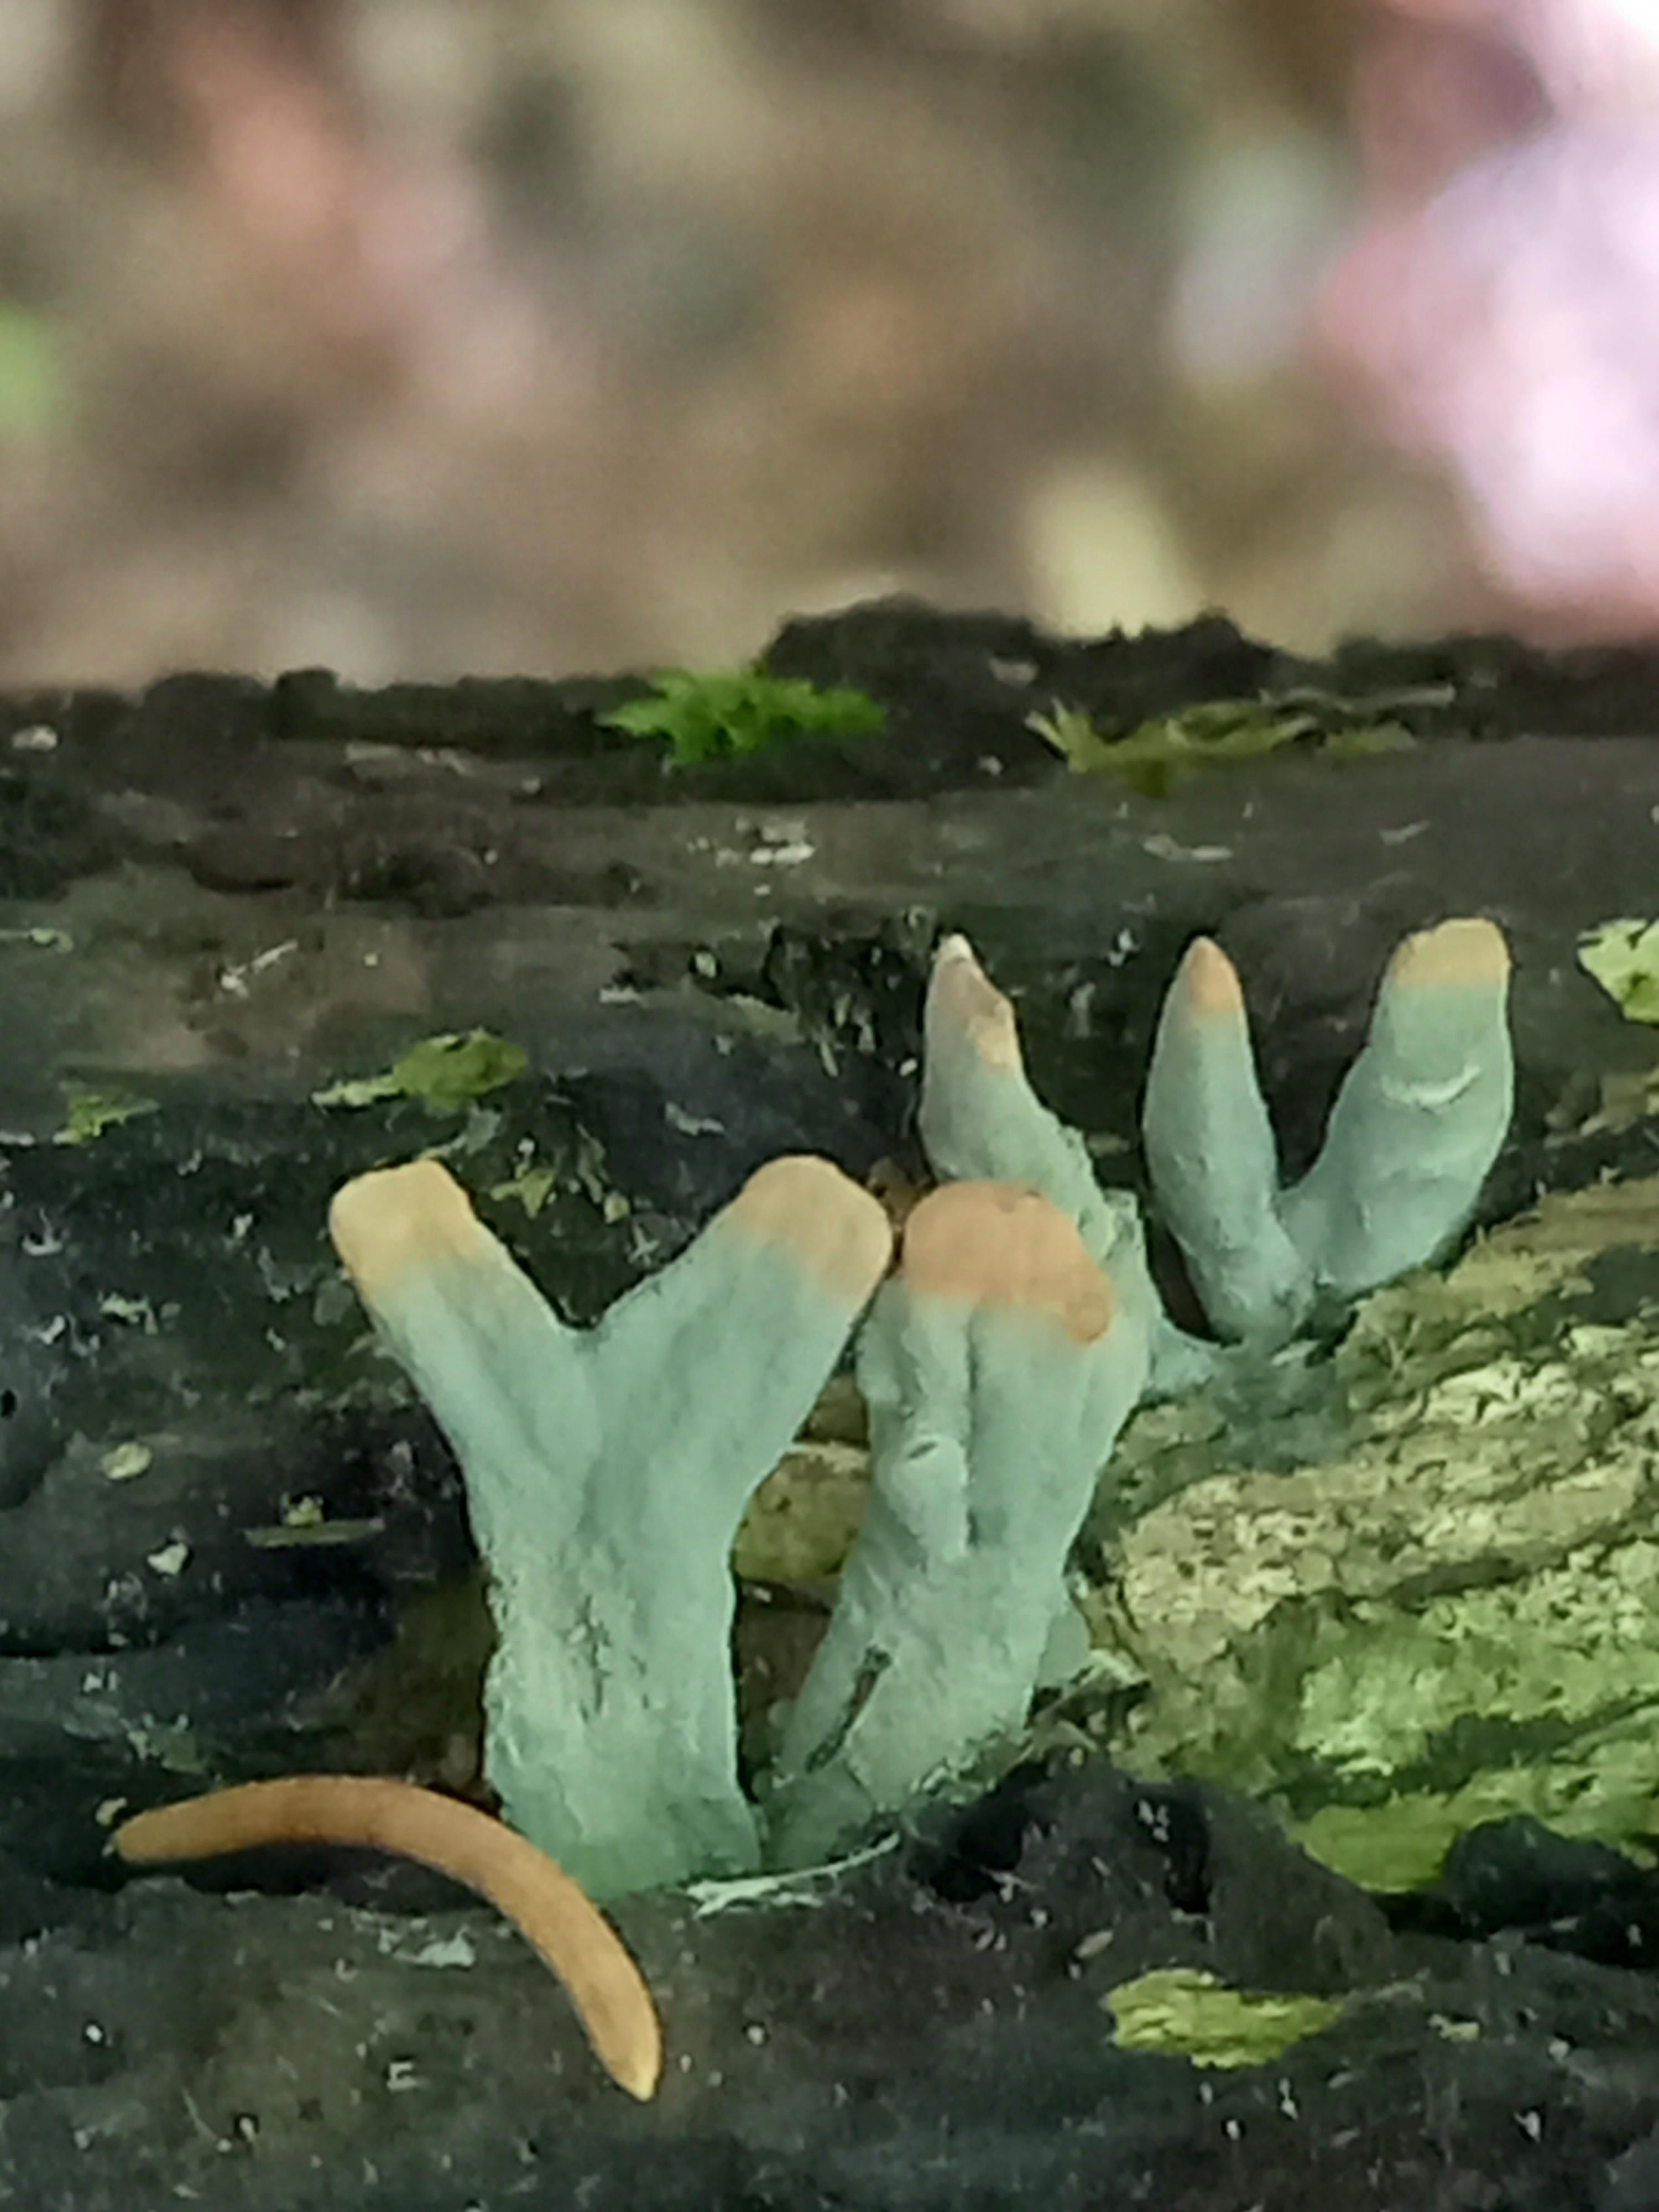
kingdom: Fungi
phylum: Ascomycota
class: Sordariomycetes
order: Xylariales
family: Xylariaceae
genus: Xylaria
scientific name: Xylaria hypoxylon
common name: grenet stødsvamp
